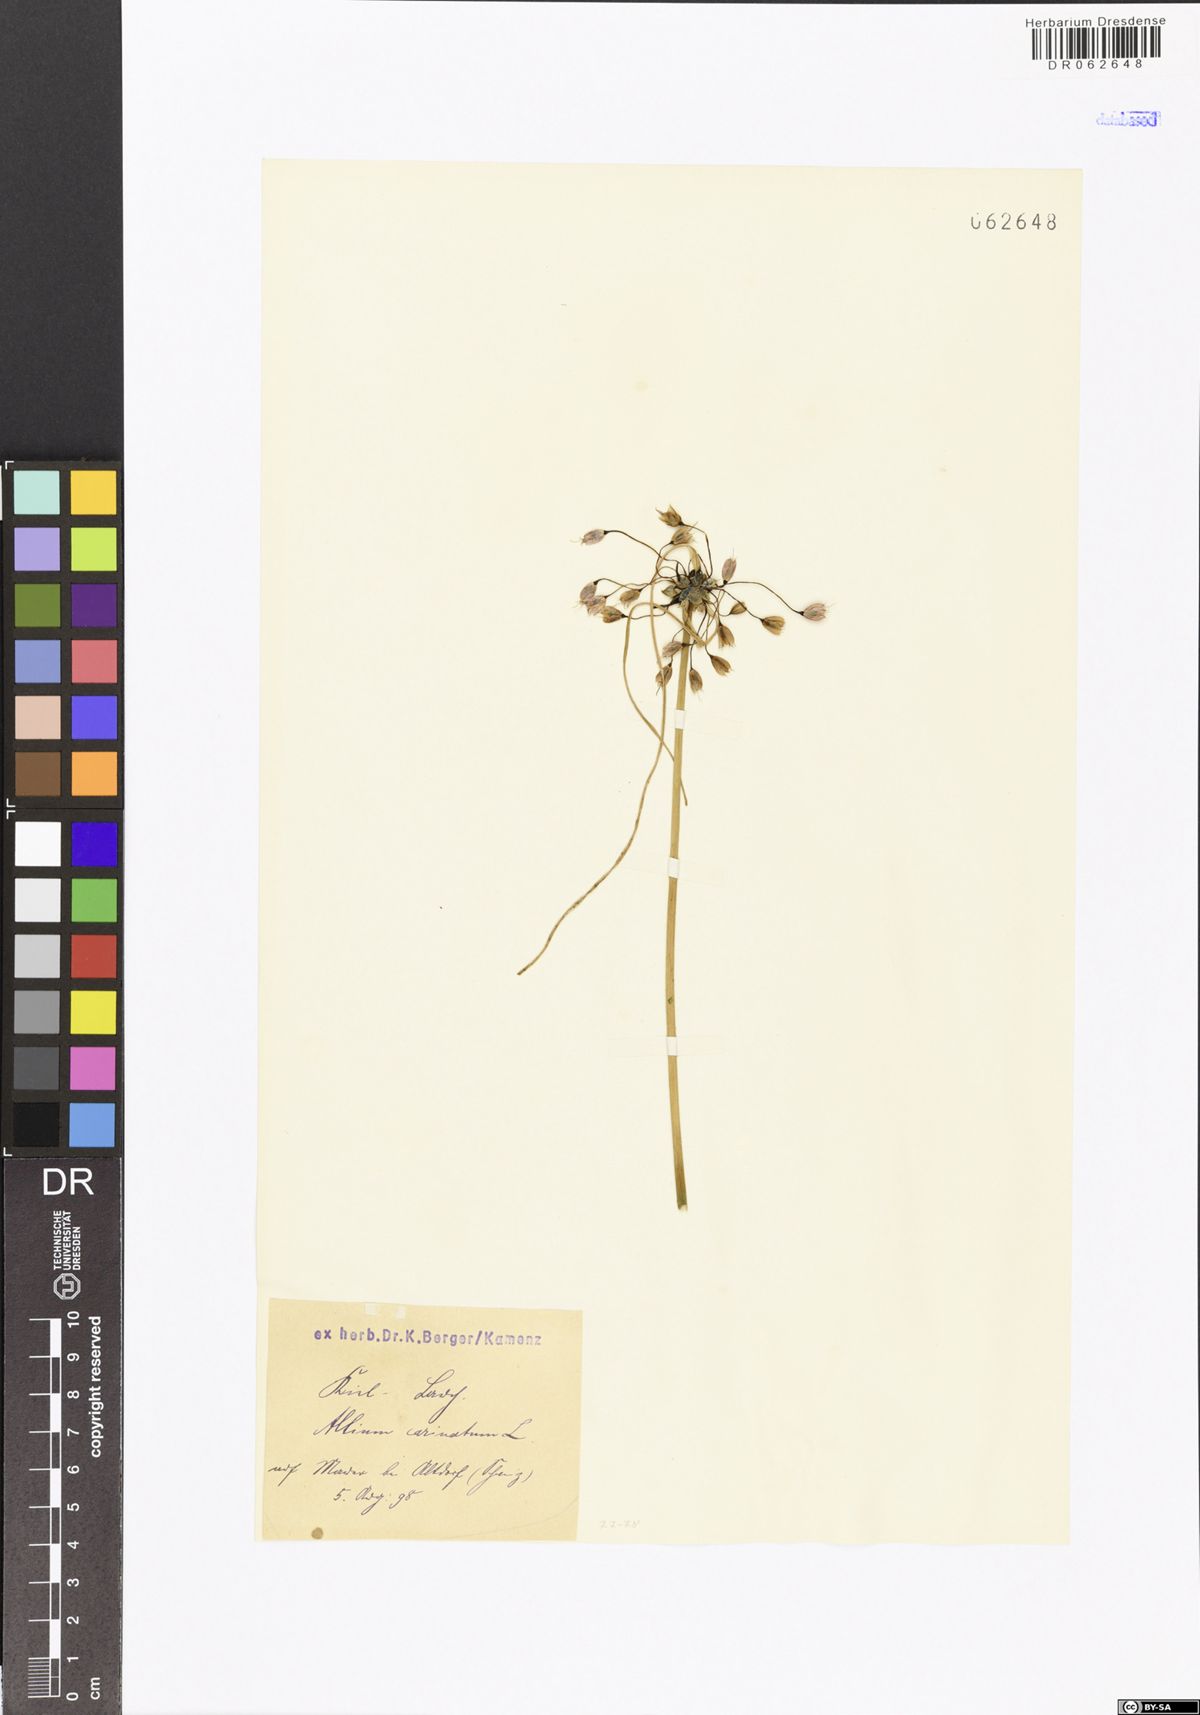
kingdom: Plantae
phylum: Tracheophyta
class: Liliopsida
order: Asparagales
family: Amaryllidaceae
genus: Allium
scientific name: Allium carinatum
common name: Keeled garlic
